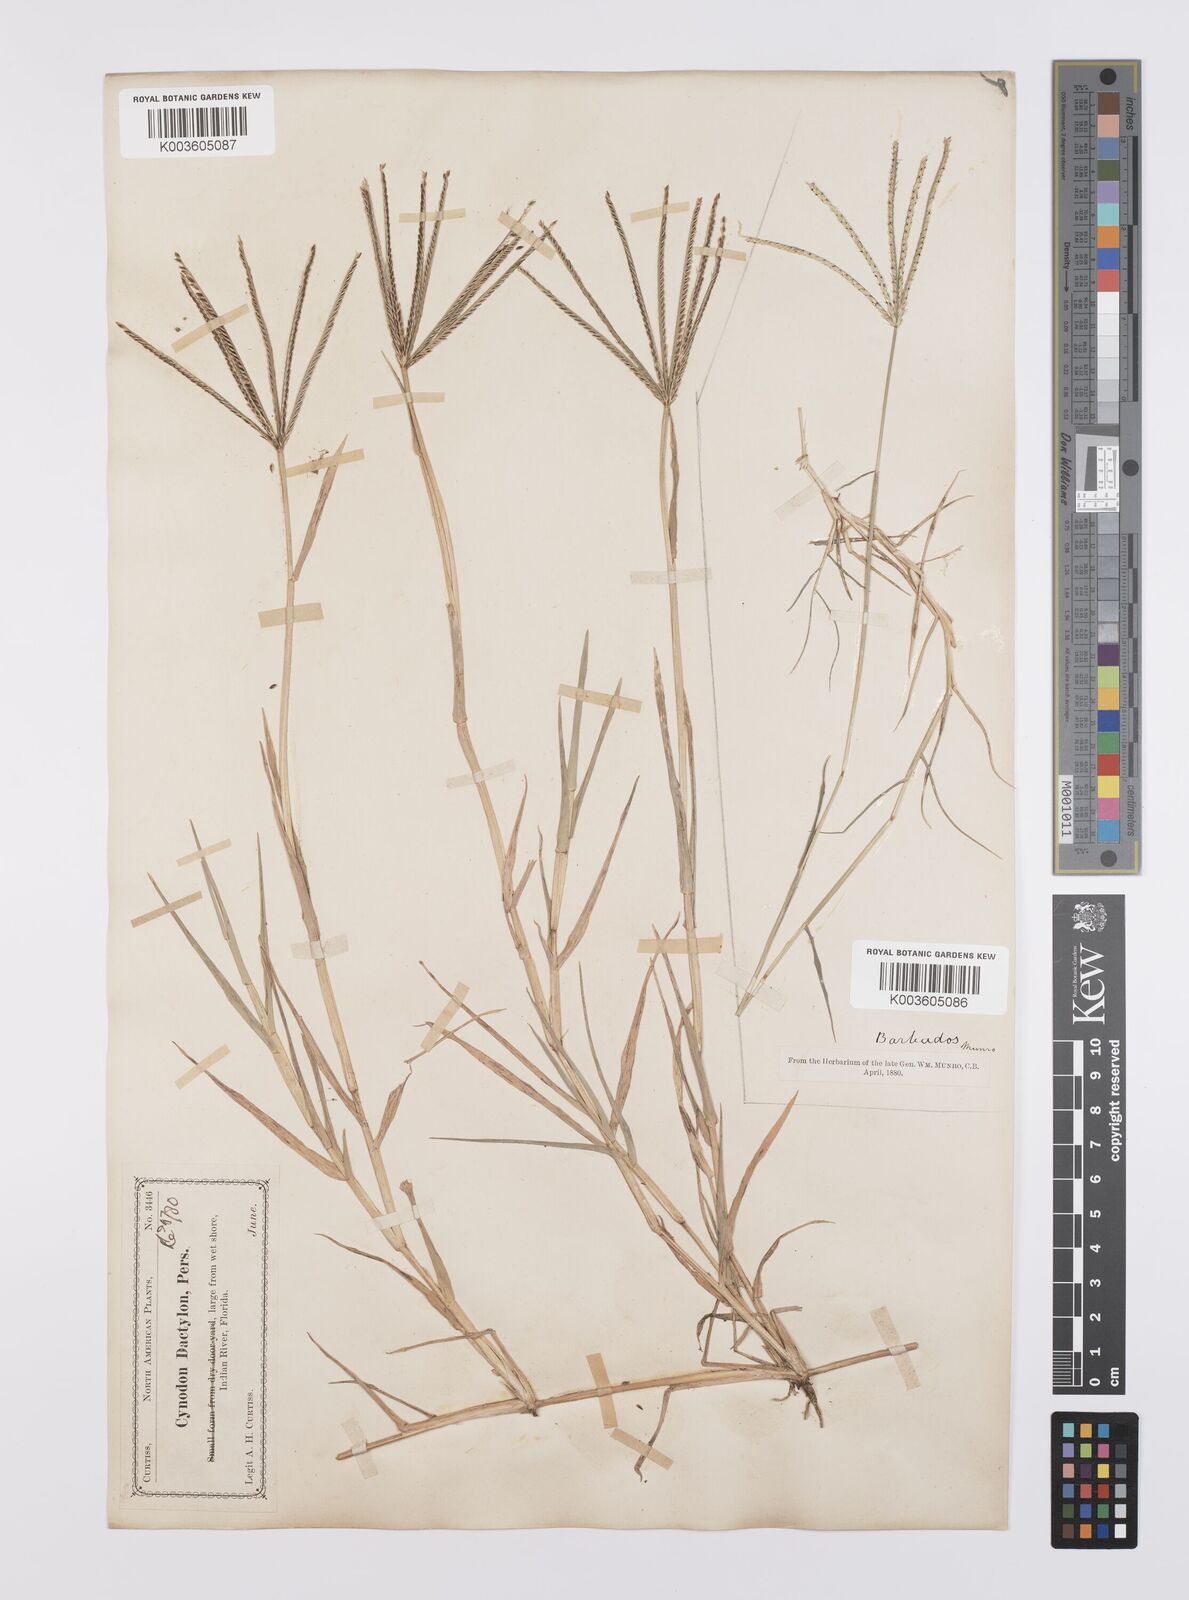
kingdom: Plantae
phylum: Tracheophyta
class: Liliopsida
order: Poales
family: Poaceae
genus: Cynodon
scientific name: Cynodon dactylon
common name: Bermuda grass
